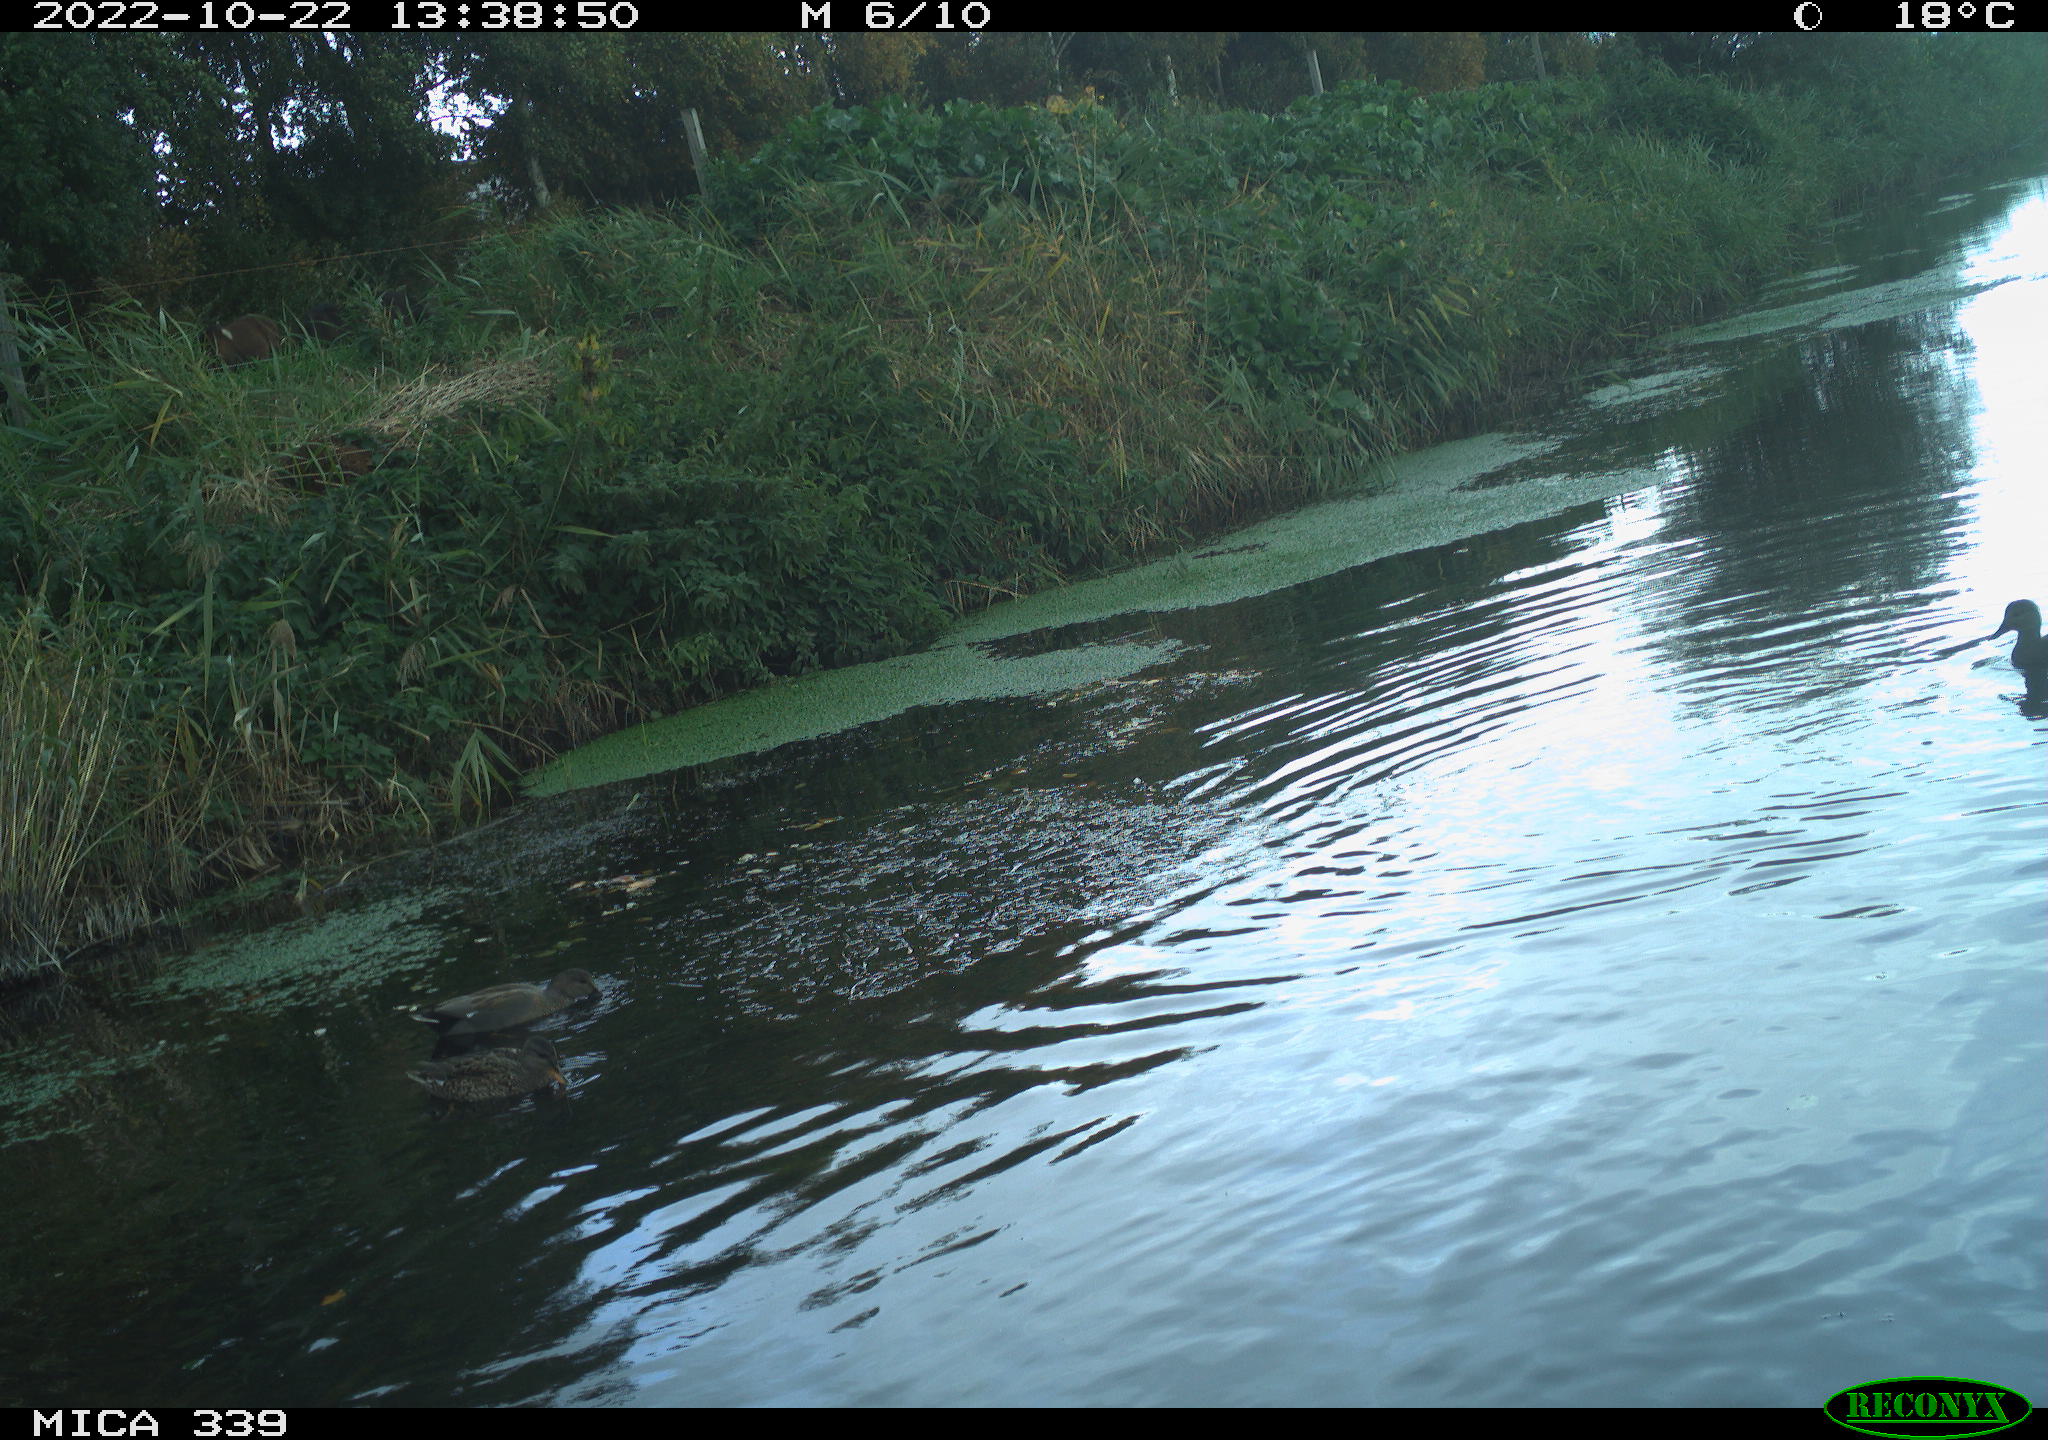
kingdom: Animalia
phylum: Chordata
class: Aves
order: Anseriformes
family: Anatidae
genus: Mareca
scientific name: Mareca strepera
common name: Gadwall
